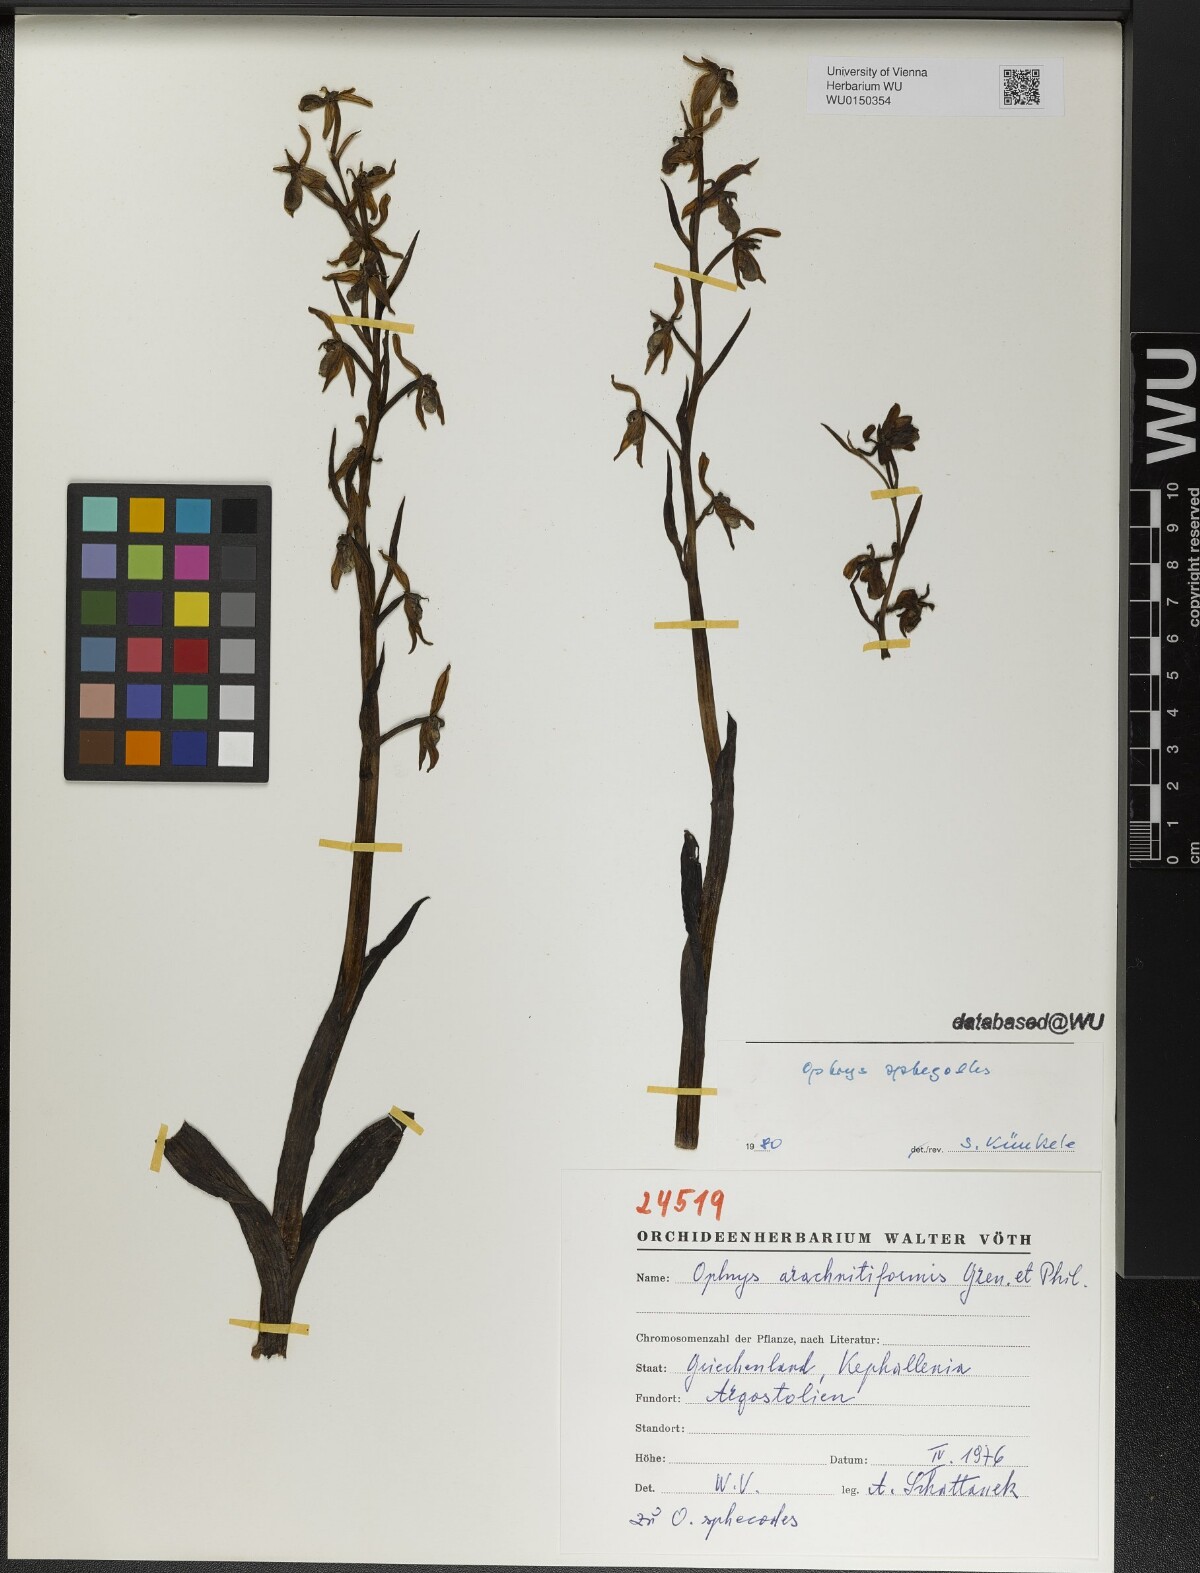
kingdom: Plantae
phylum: Tracheophyta
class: Liliopsida
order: Asparagales
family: Orchidaceae
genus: Ophrys
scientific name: Ophrys sphegodes
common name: Early spider-orchid
